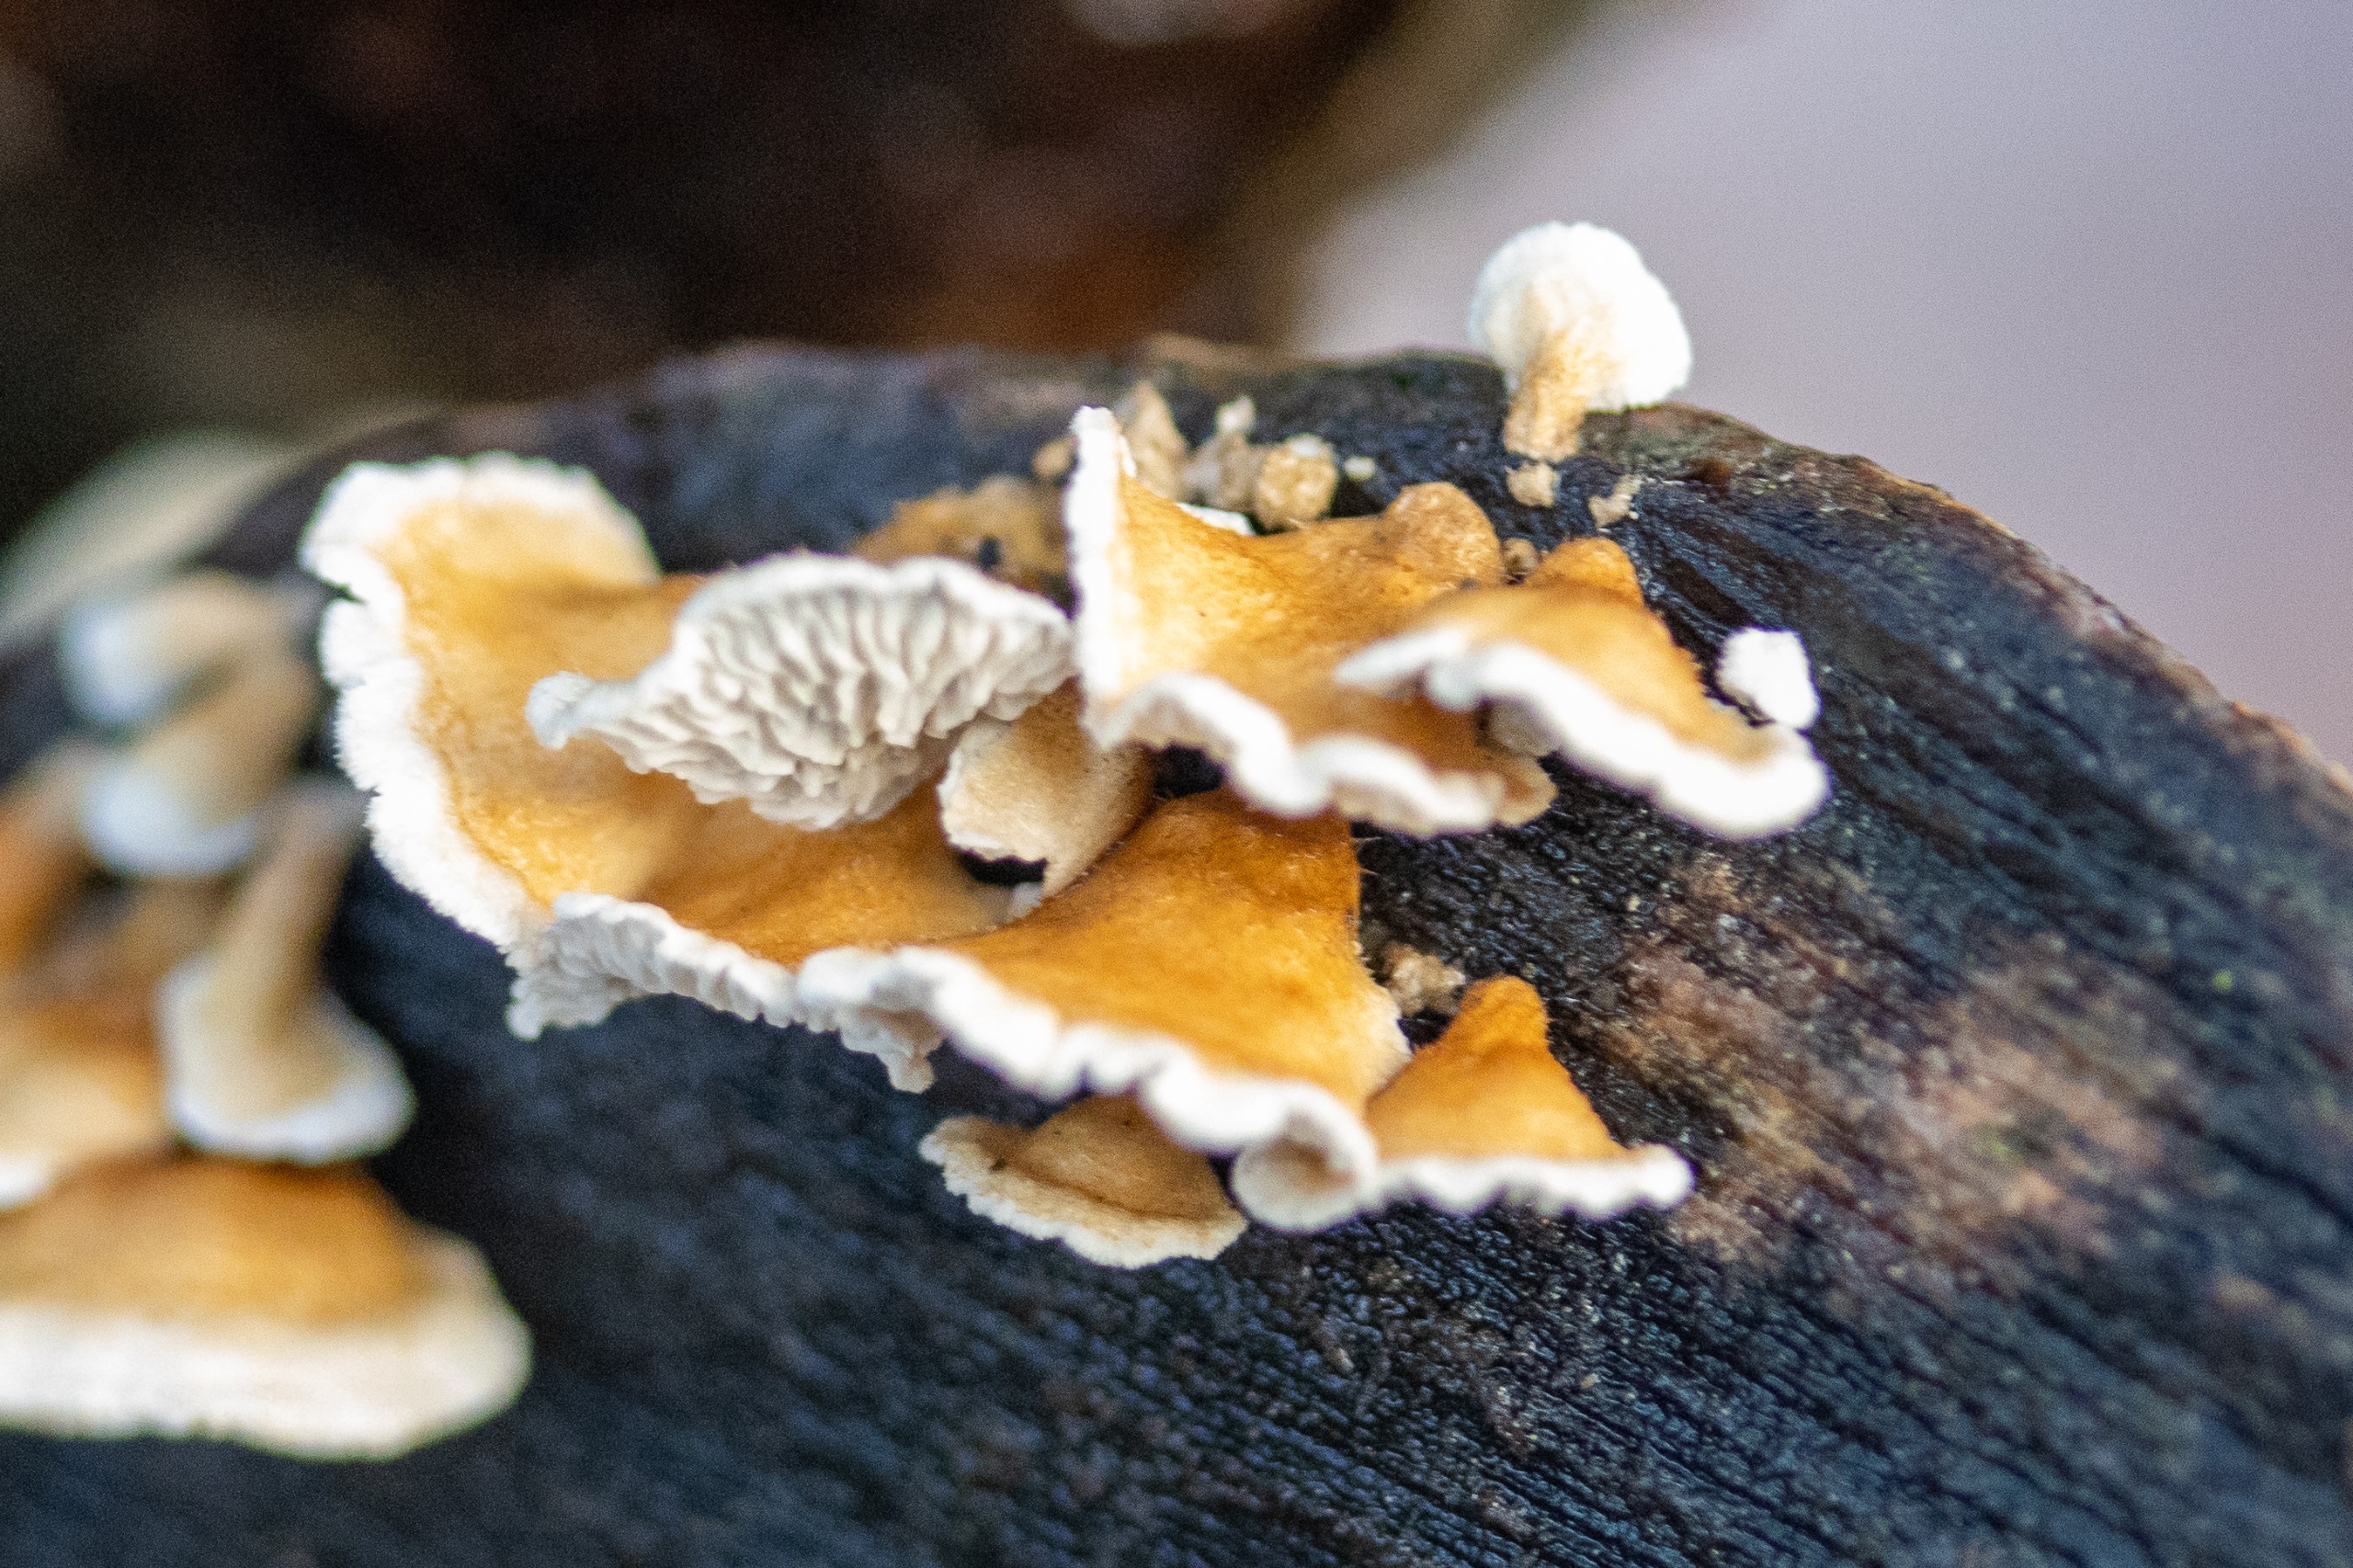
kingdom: Fungi
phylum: Basidiomycota
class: Agaricomycetes
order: Amylocorticiales
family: Amylocorticiaceae
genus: Plicaturopsis
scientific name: Plicaturopsis crispa
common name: Krusblad
